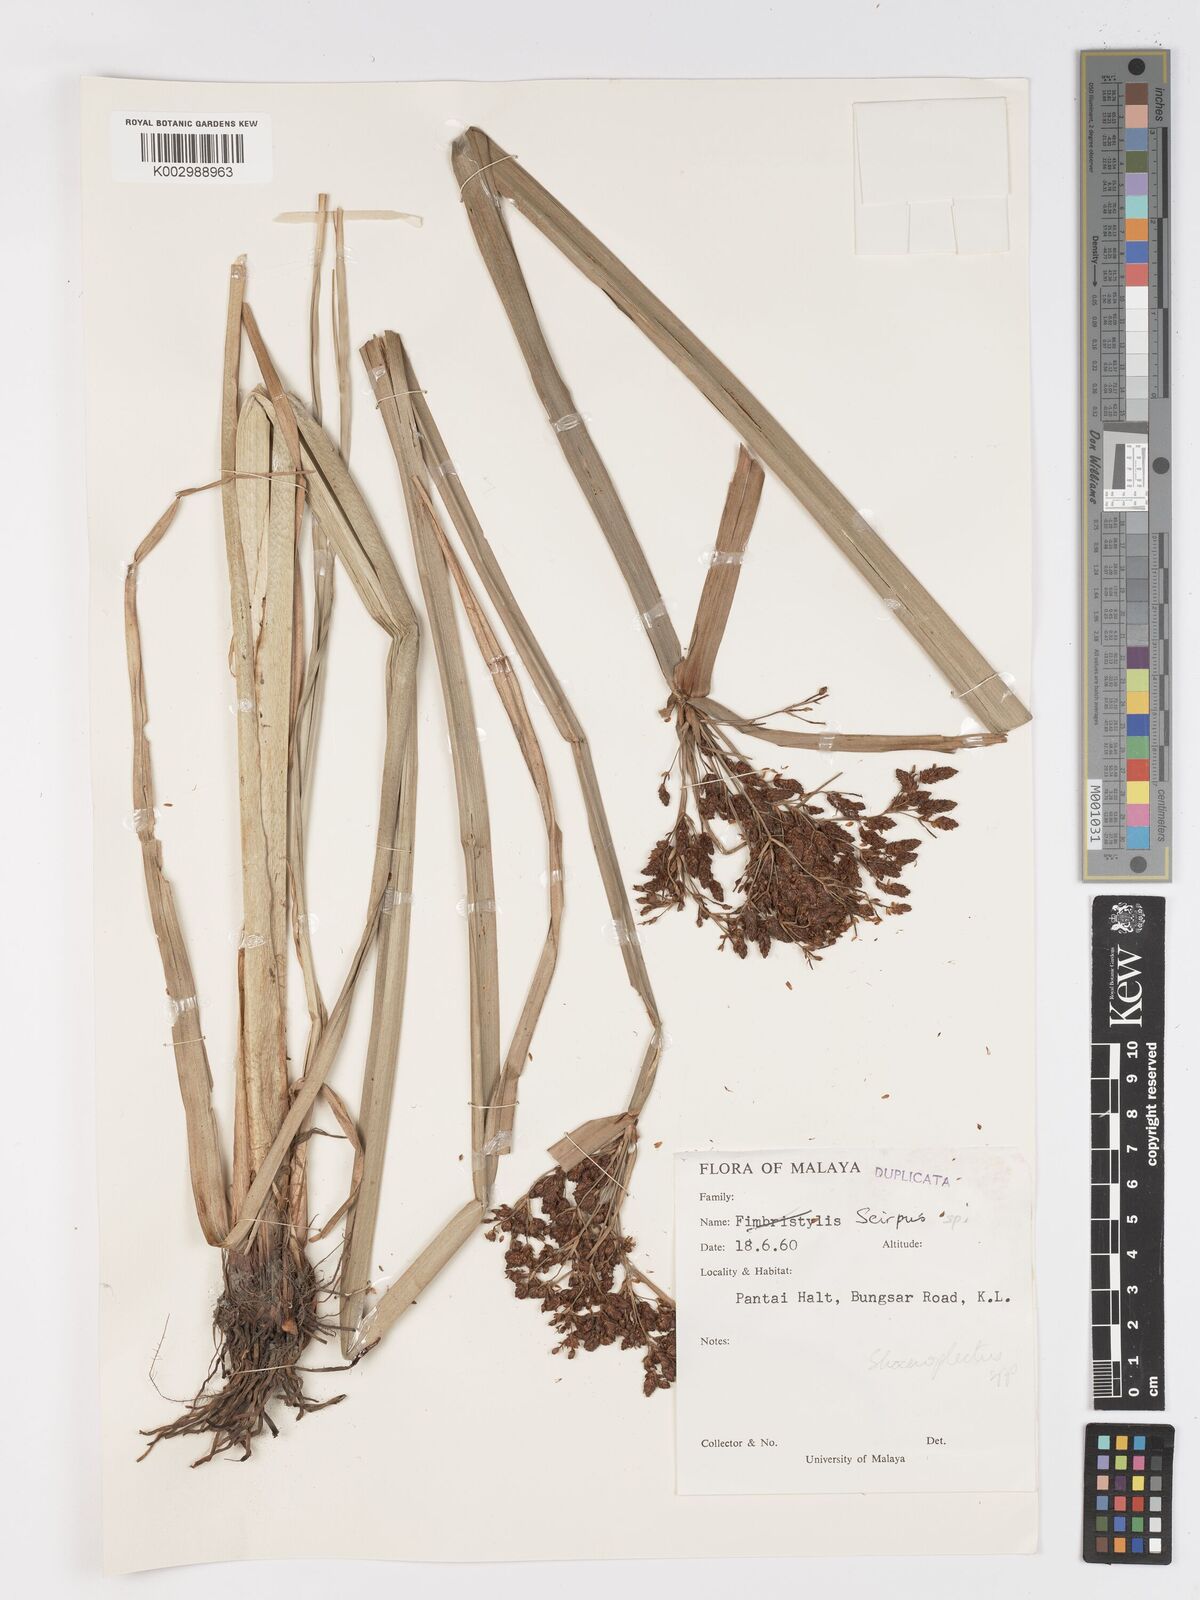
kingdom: Plantae
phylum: Tracheophyta
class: Liliopsida
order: Poales
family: Cyperaceae
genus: Schoenoplectus
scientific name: Schoenoplectus
